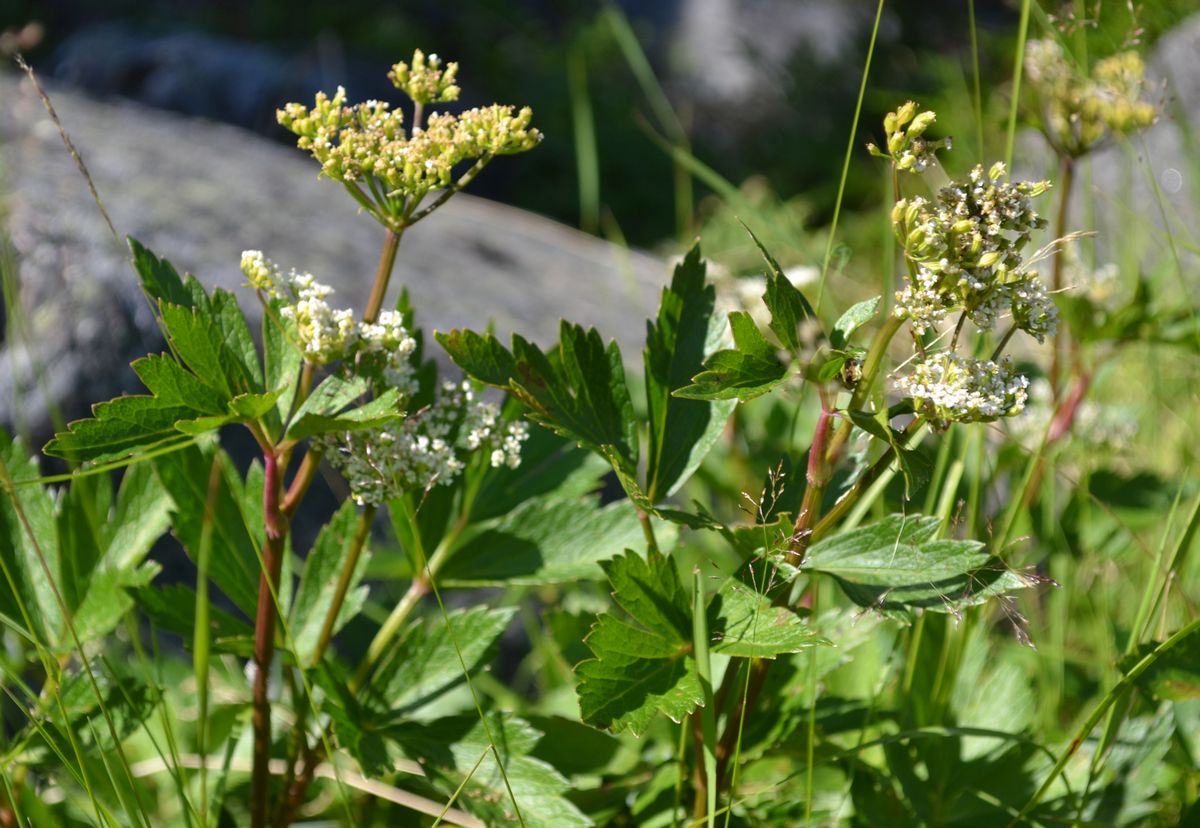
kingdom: Plantae
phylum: Tracheophyta
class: Magnoliopsida
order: Apiales
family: Apiaceae
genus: Ligusticum
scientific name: Ligusticum scothicum
